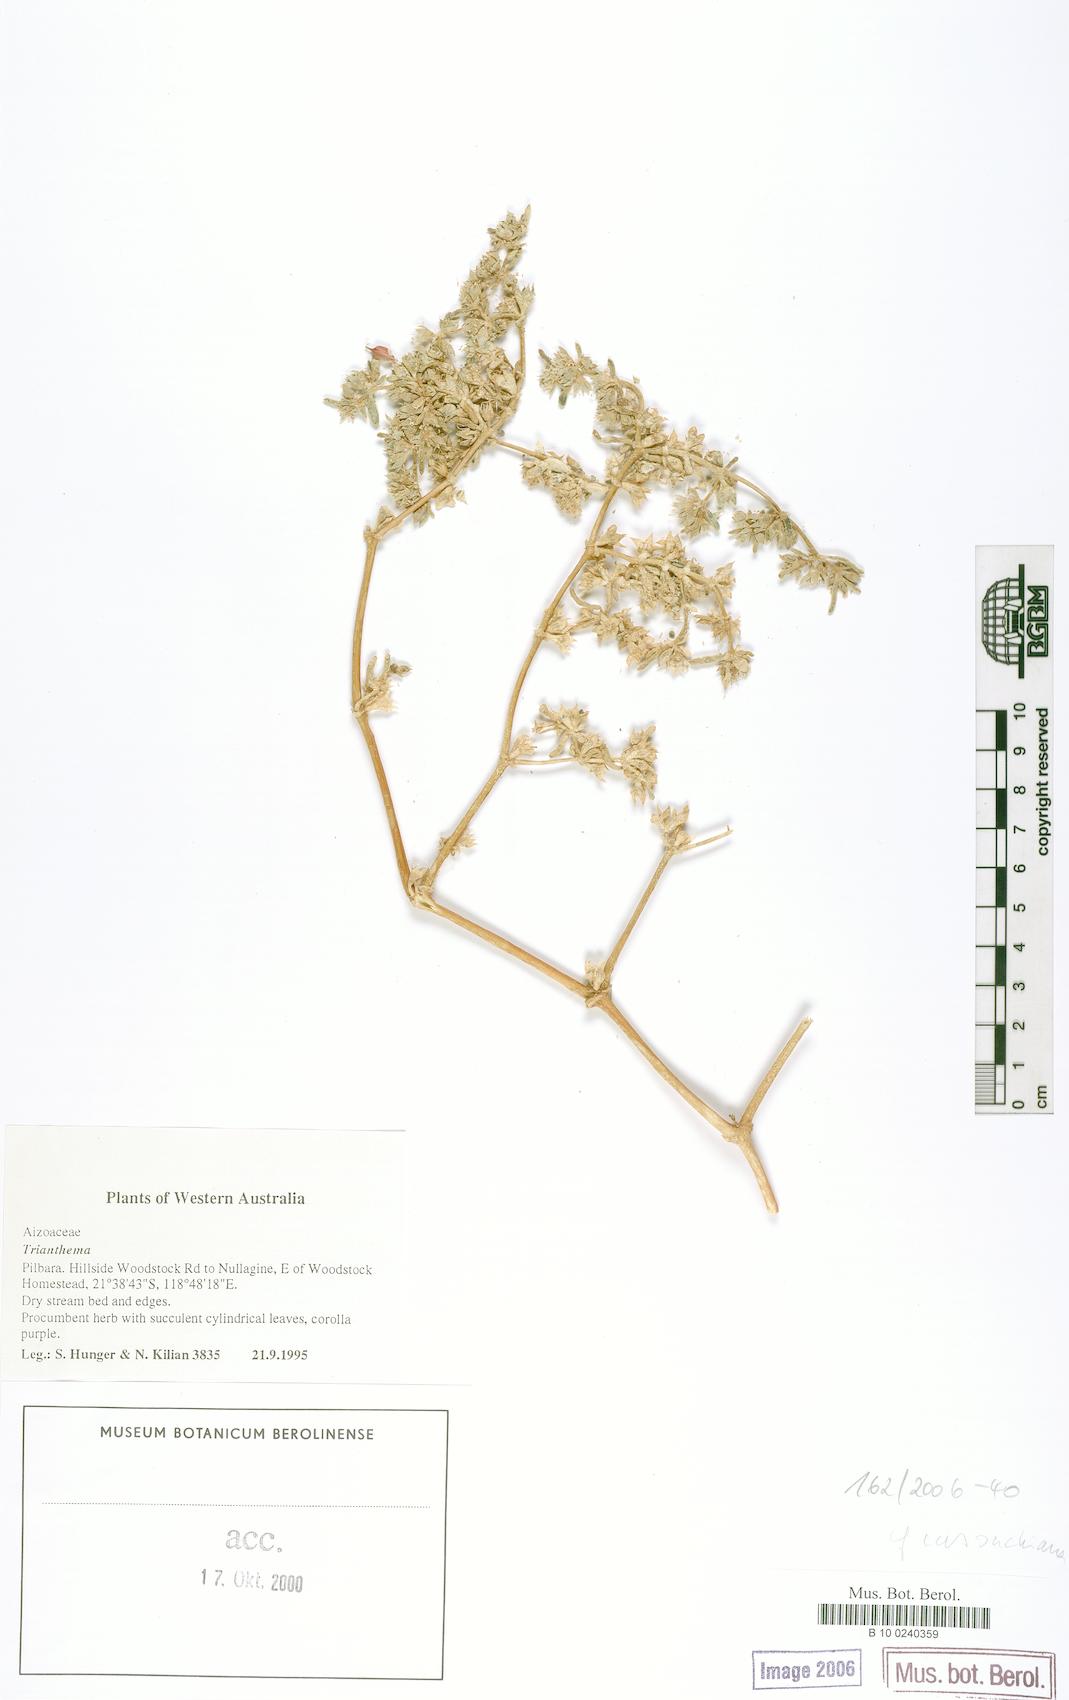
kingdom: Plantae
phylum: Tracheophyta
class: Magnoliopsida
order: Caryophyllales
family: Aizoaceae
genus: Trianthema
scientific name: Trianthema
